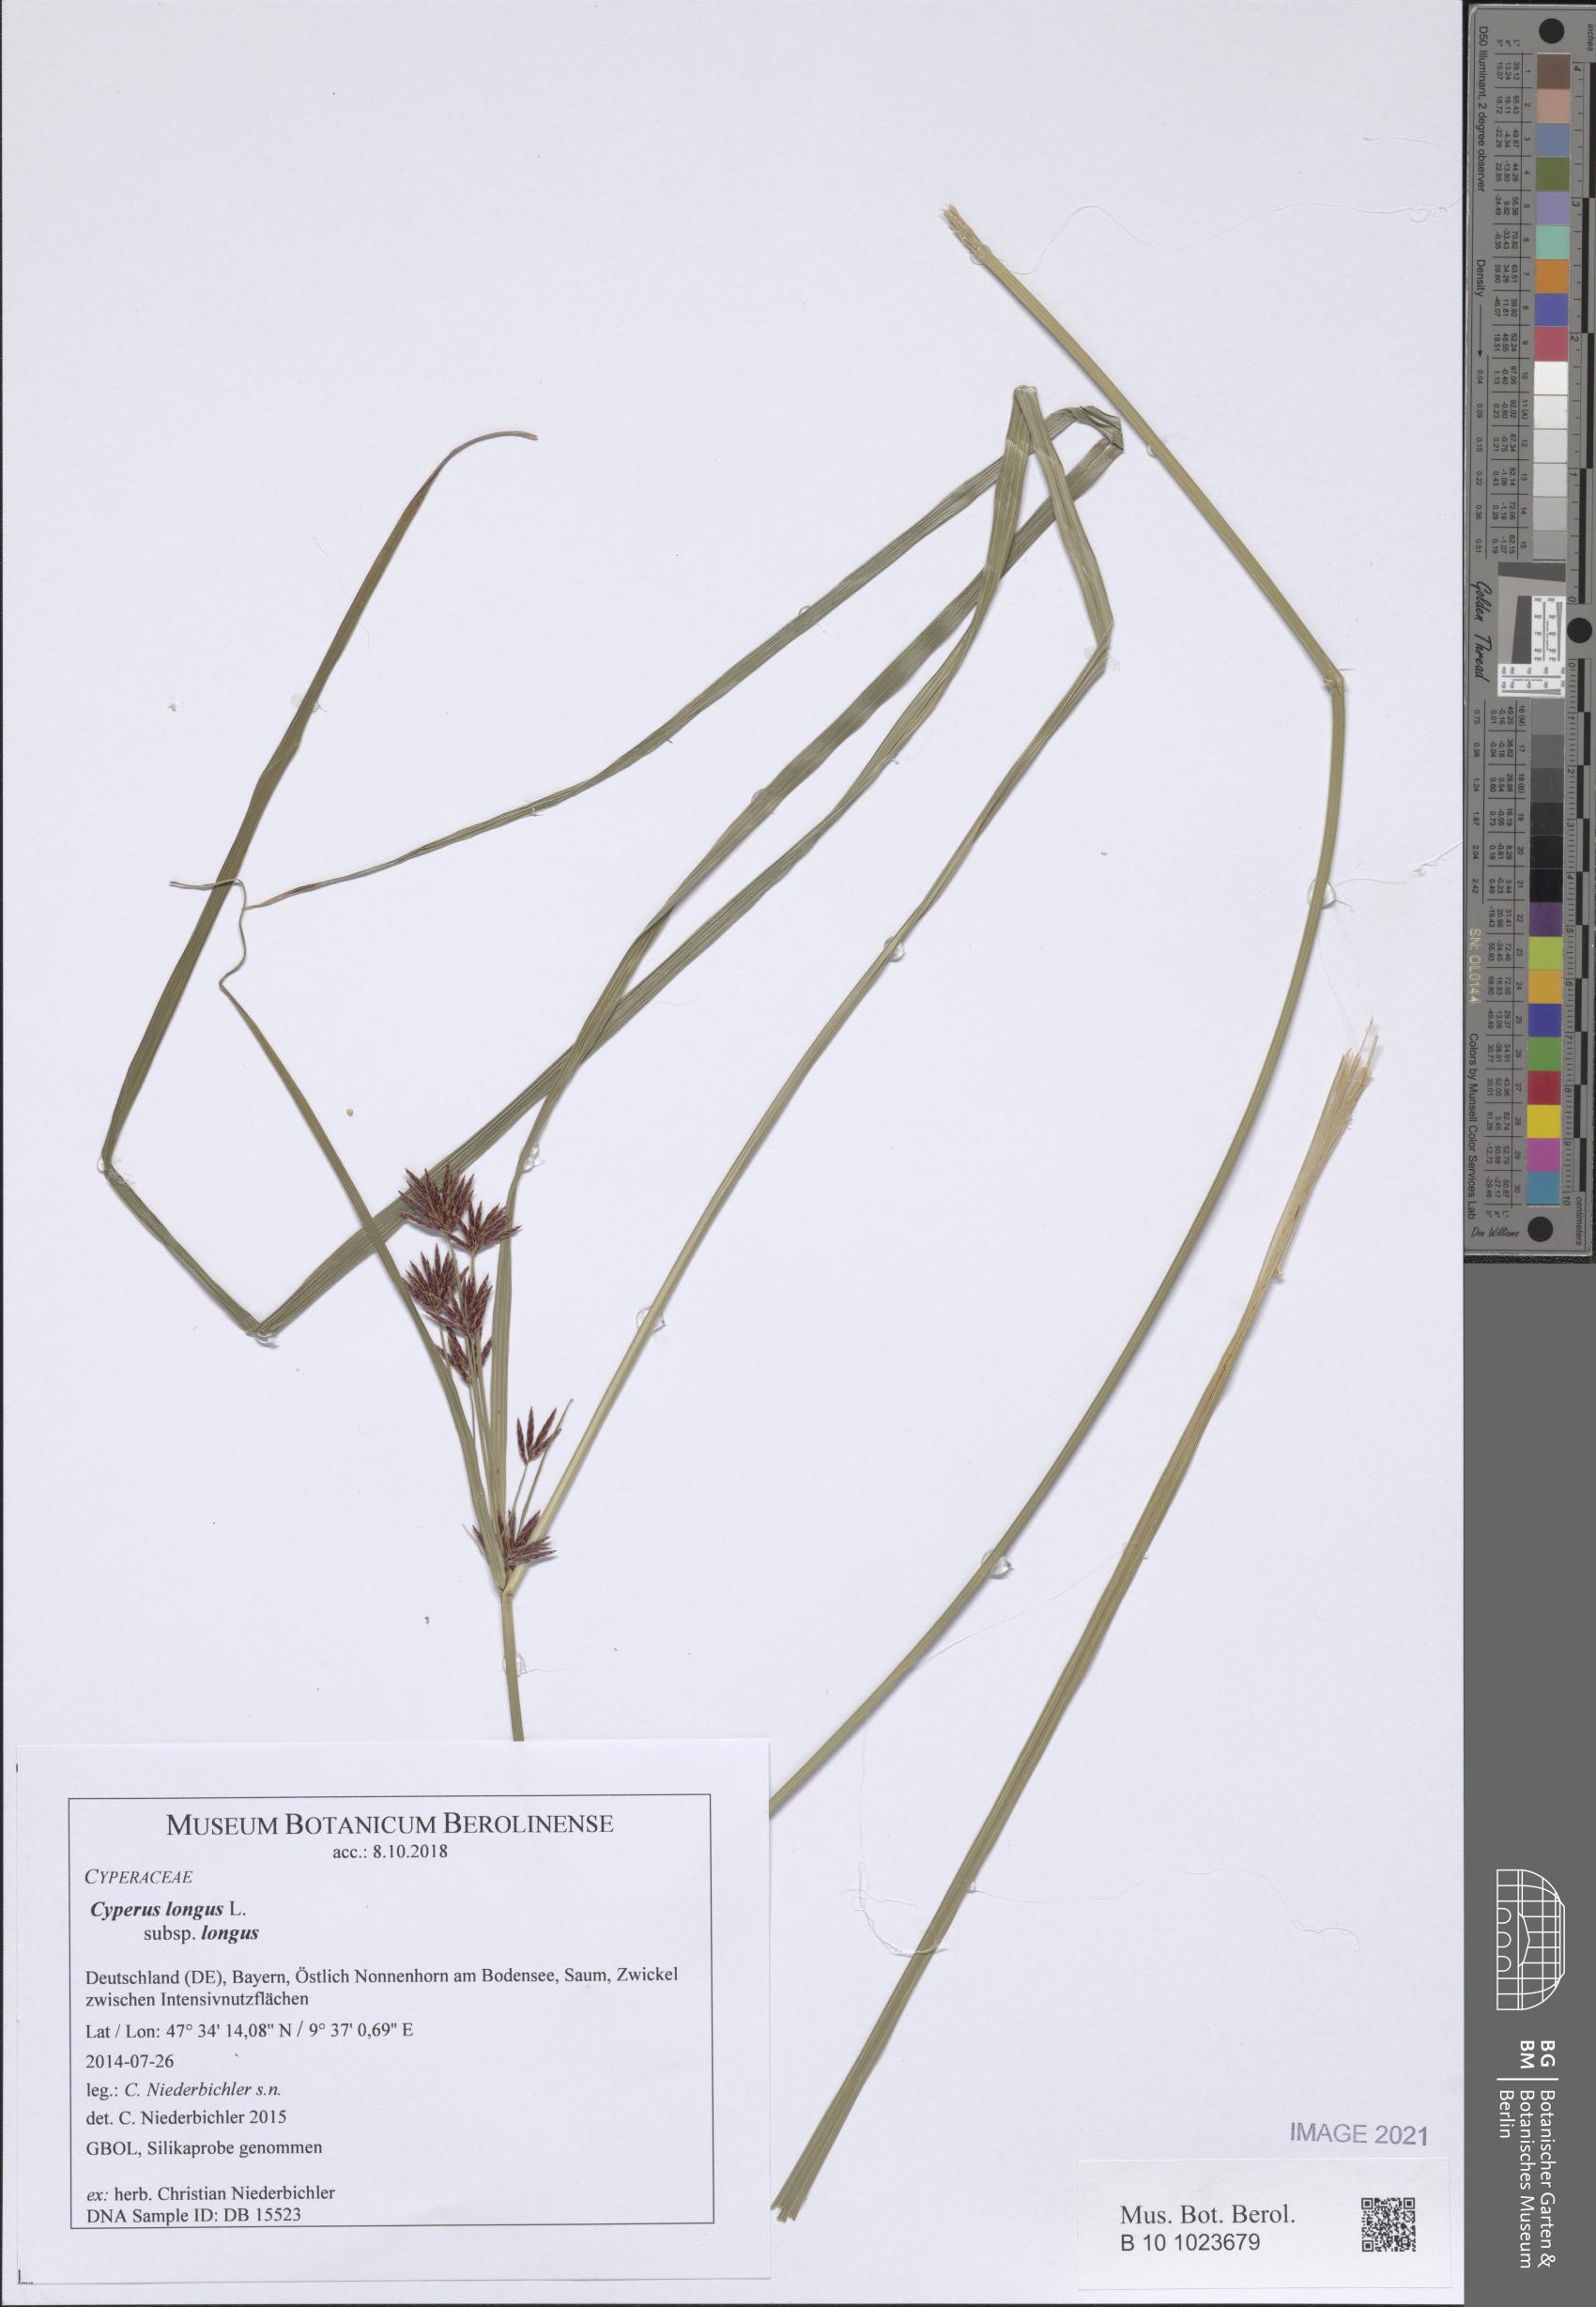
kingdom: Plantae
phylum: Tracheophyta
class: Liliopsida
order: Poales
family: Cyperaceae
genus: Cyperus
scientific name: Cyperus longus
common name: Galingale
